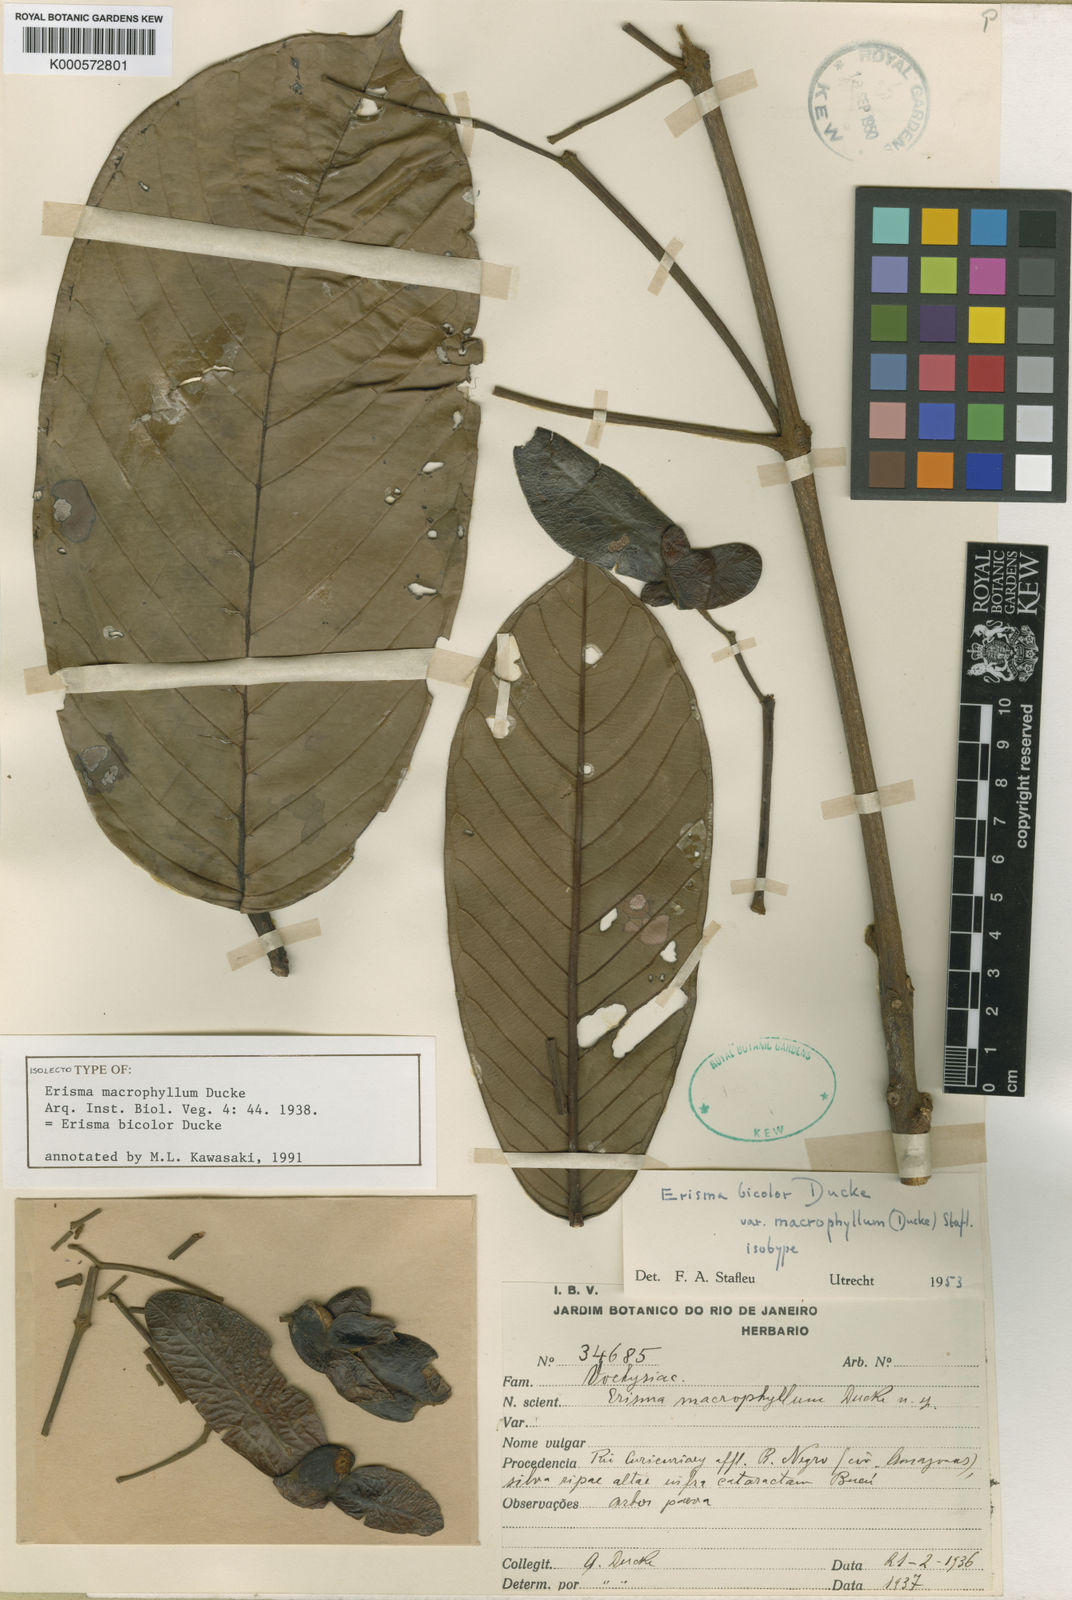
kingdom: Plantae
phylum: Tracheophyta
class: Magnoliopsida
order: Myrtales
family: Vochysiaceae
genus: Erisma
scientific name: Erisma bicolor
